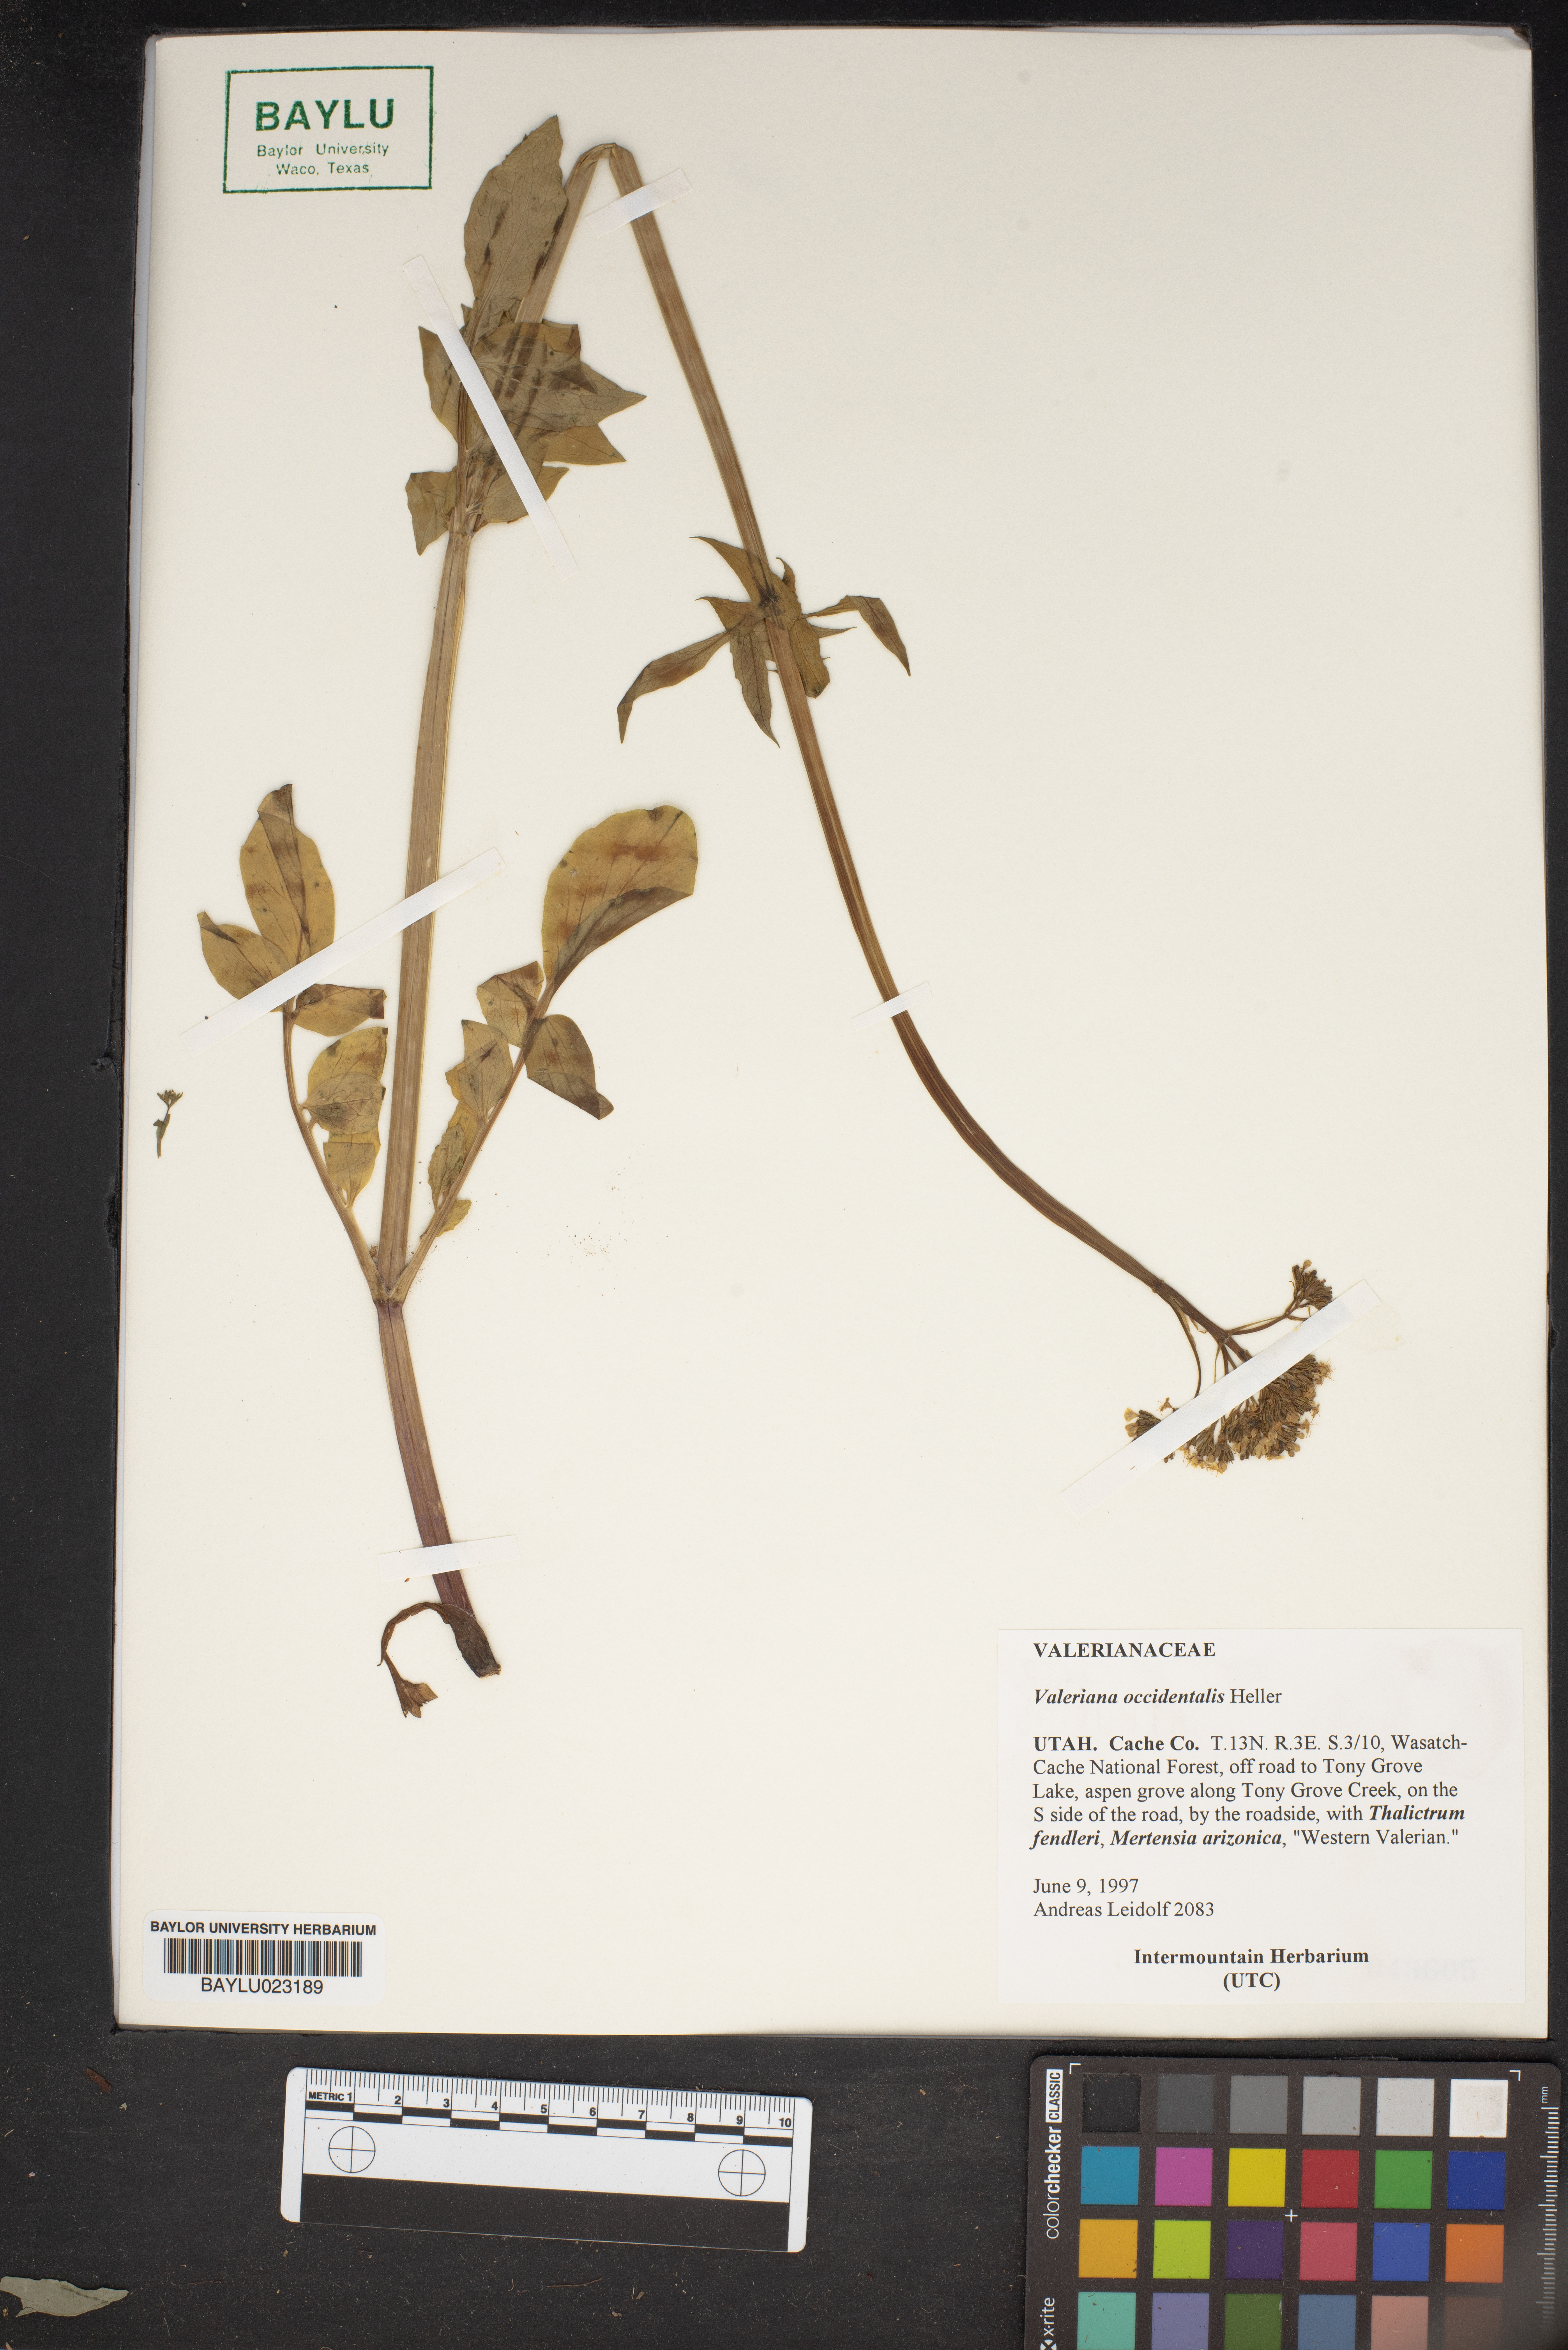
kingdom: Plantae
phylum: Tracheophyta
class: Magnoliopsida
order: Dipsacales
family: Caprifoliaceae
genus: Valeriana
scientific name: Valeriana occidentalis
